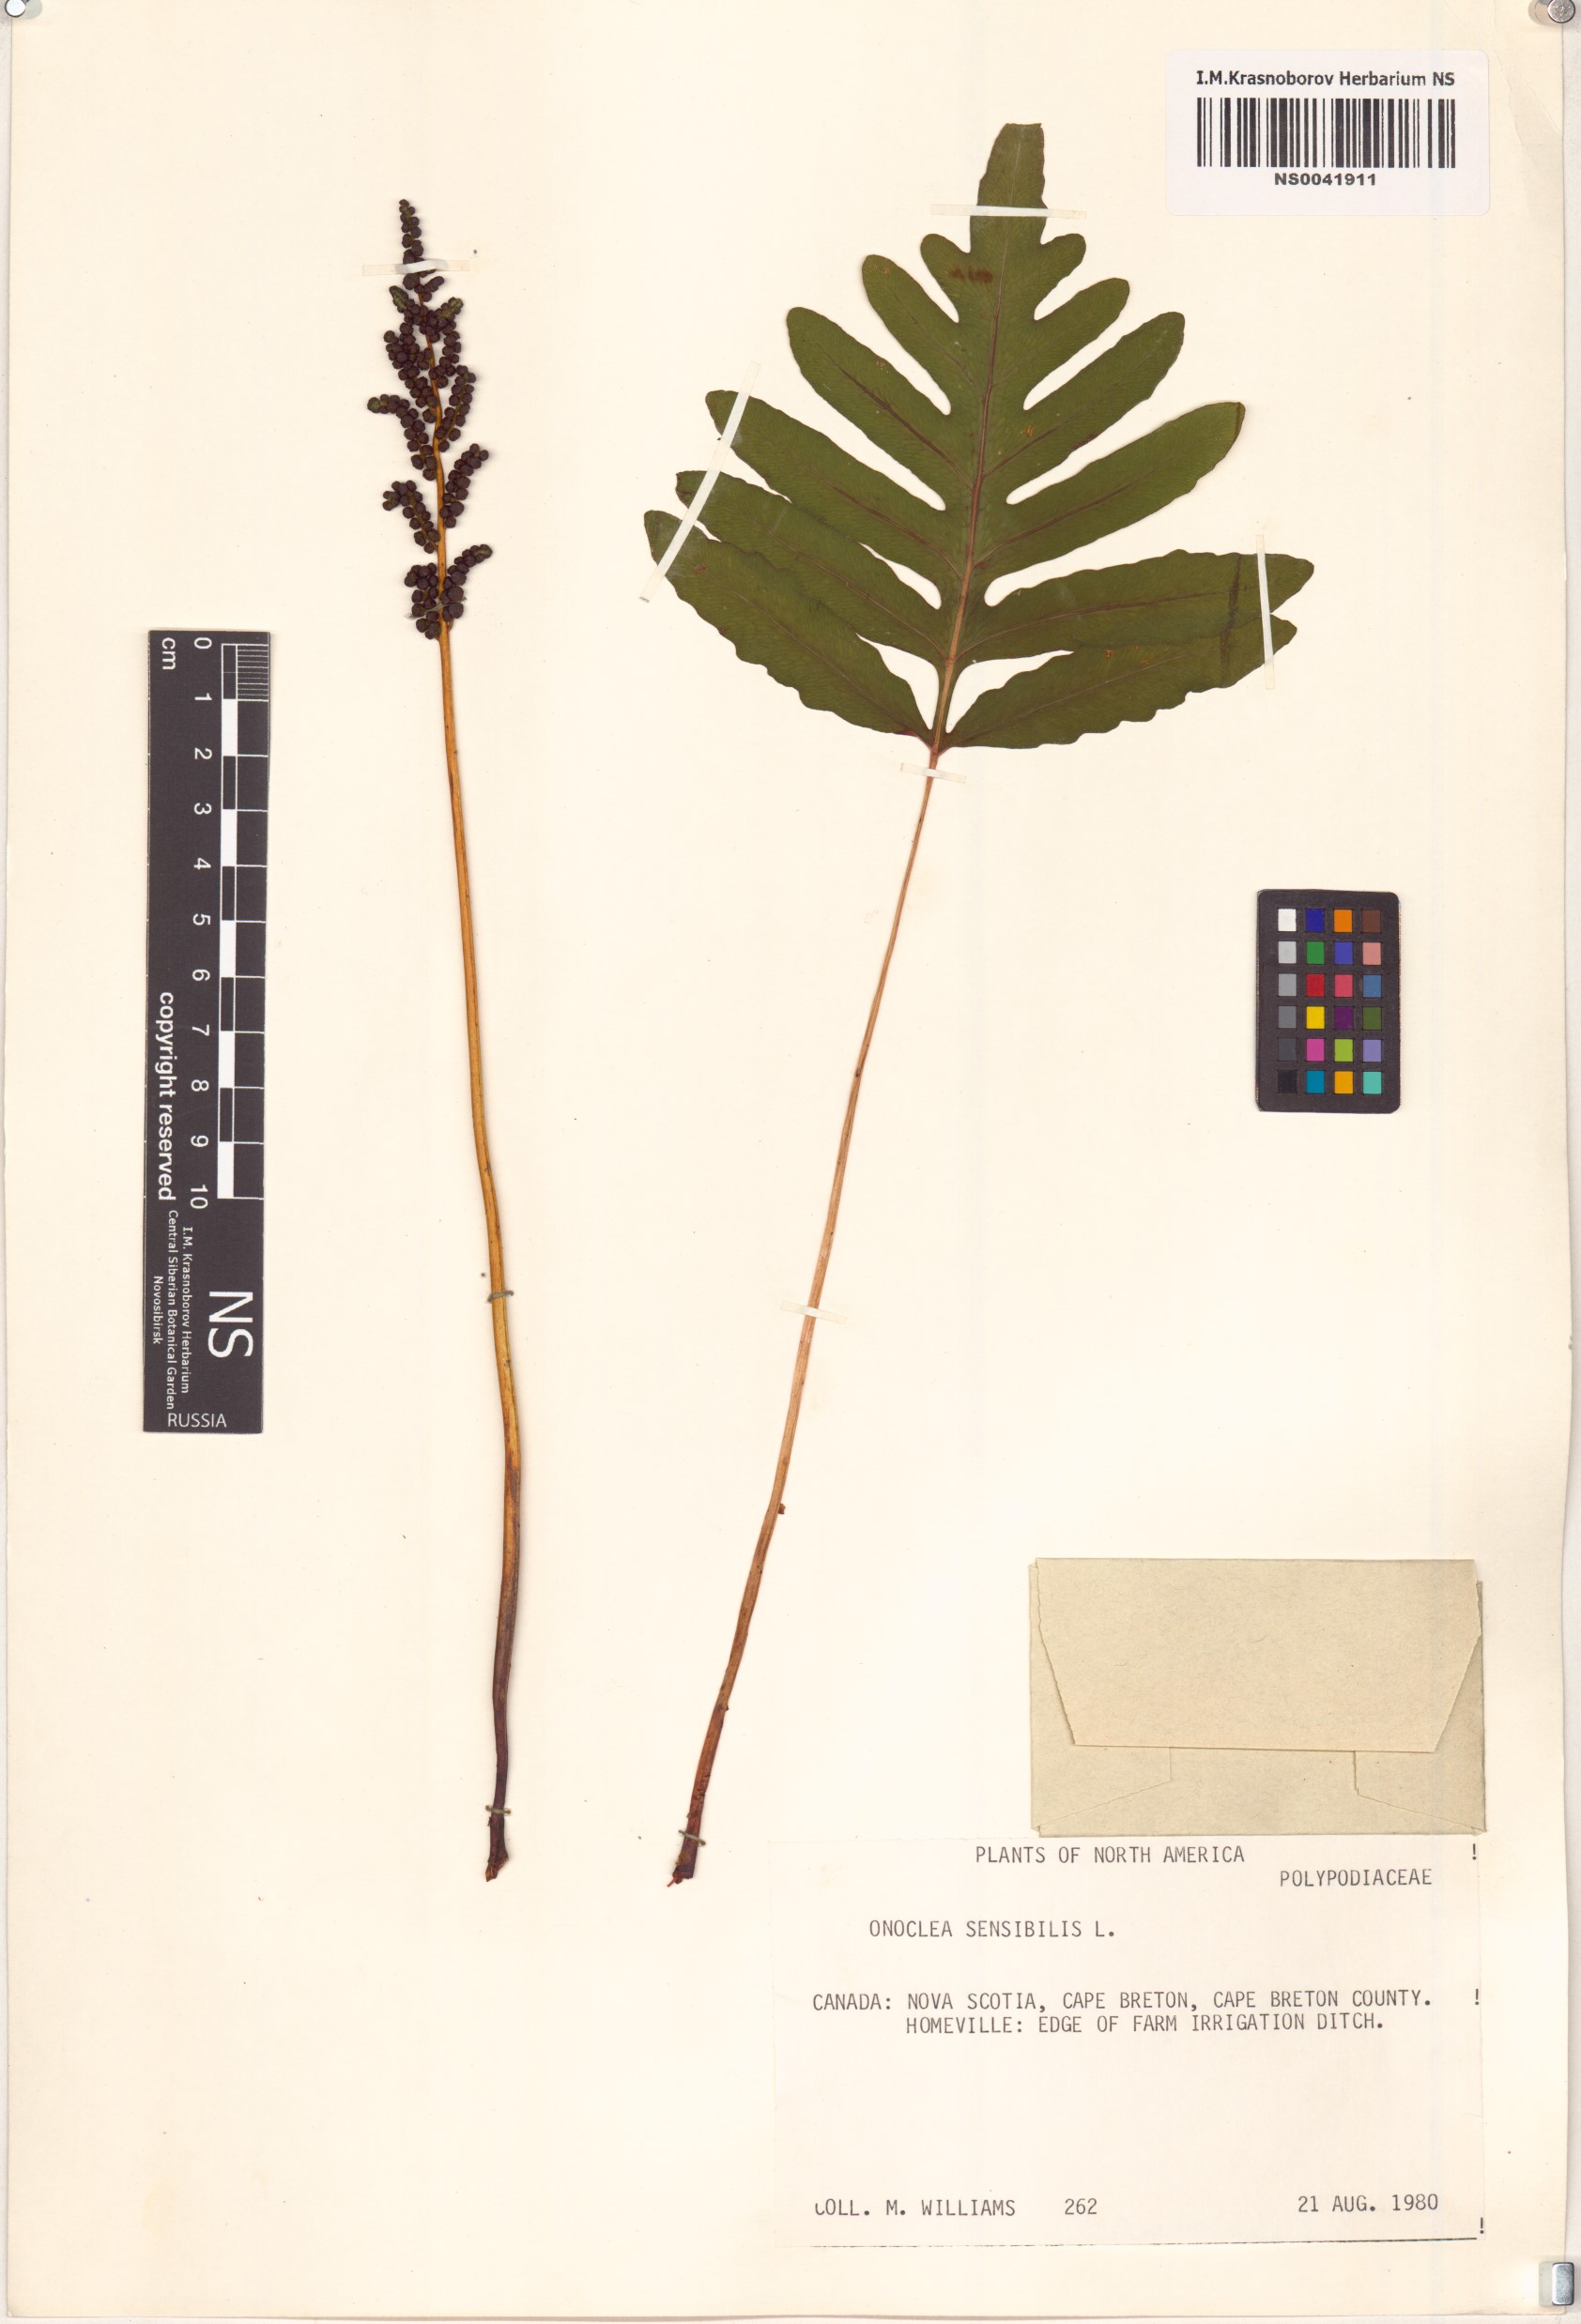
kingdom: Plantae
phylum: Tracheophyta
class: Polypodiopsida
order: Polypodiales
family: Onocleaceae
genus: Onoclea
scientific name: Onoclea sensibilis
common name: Sensitive fern
